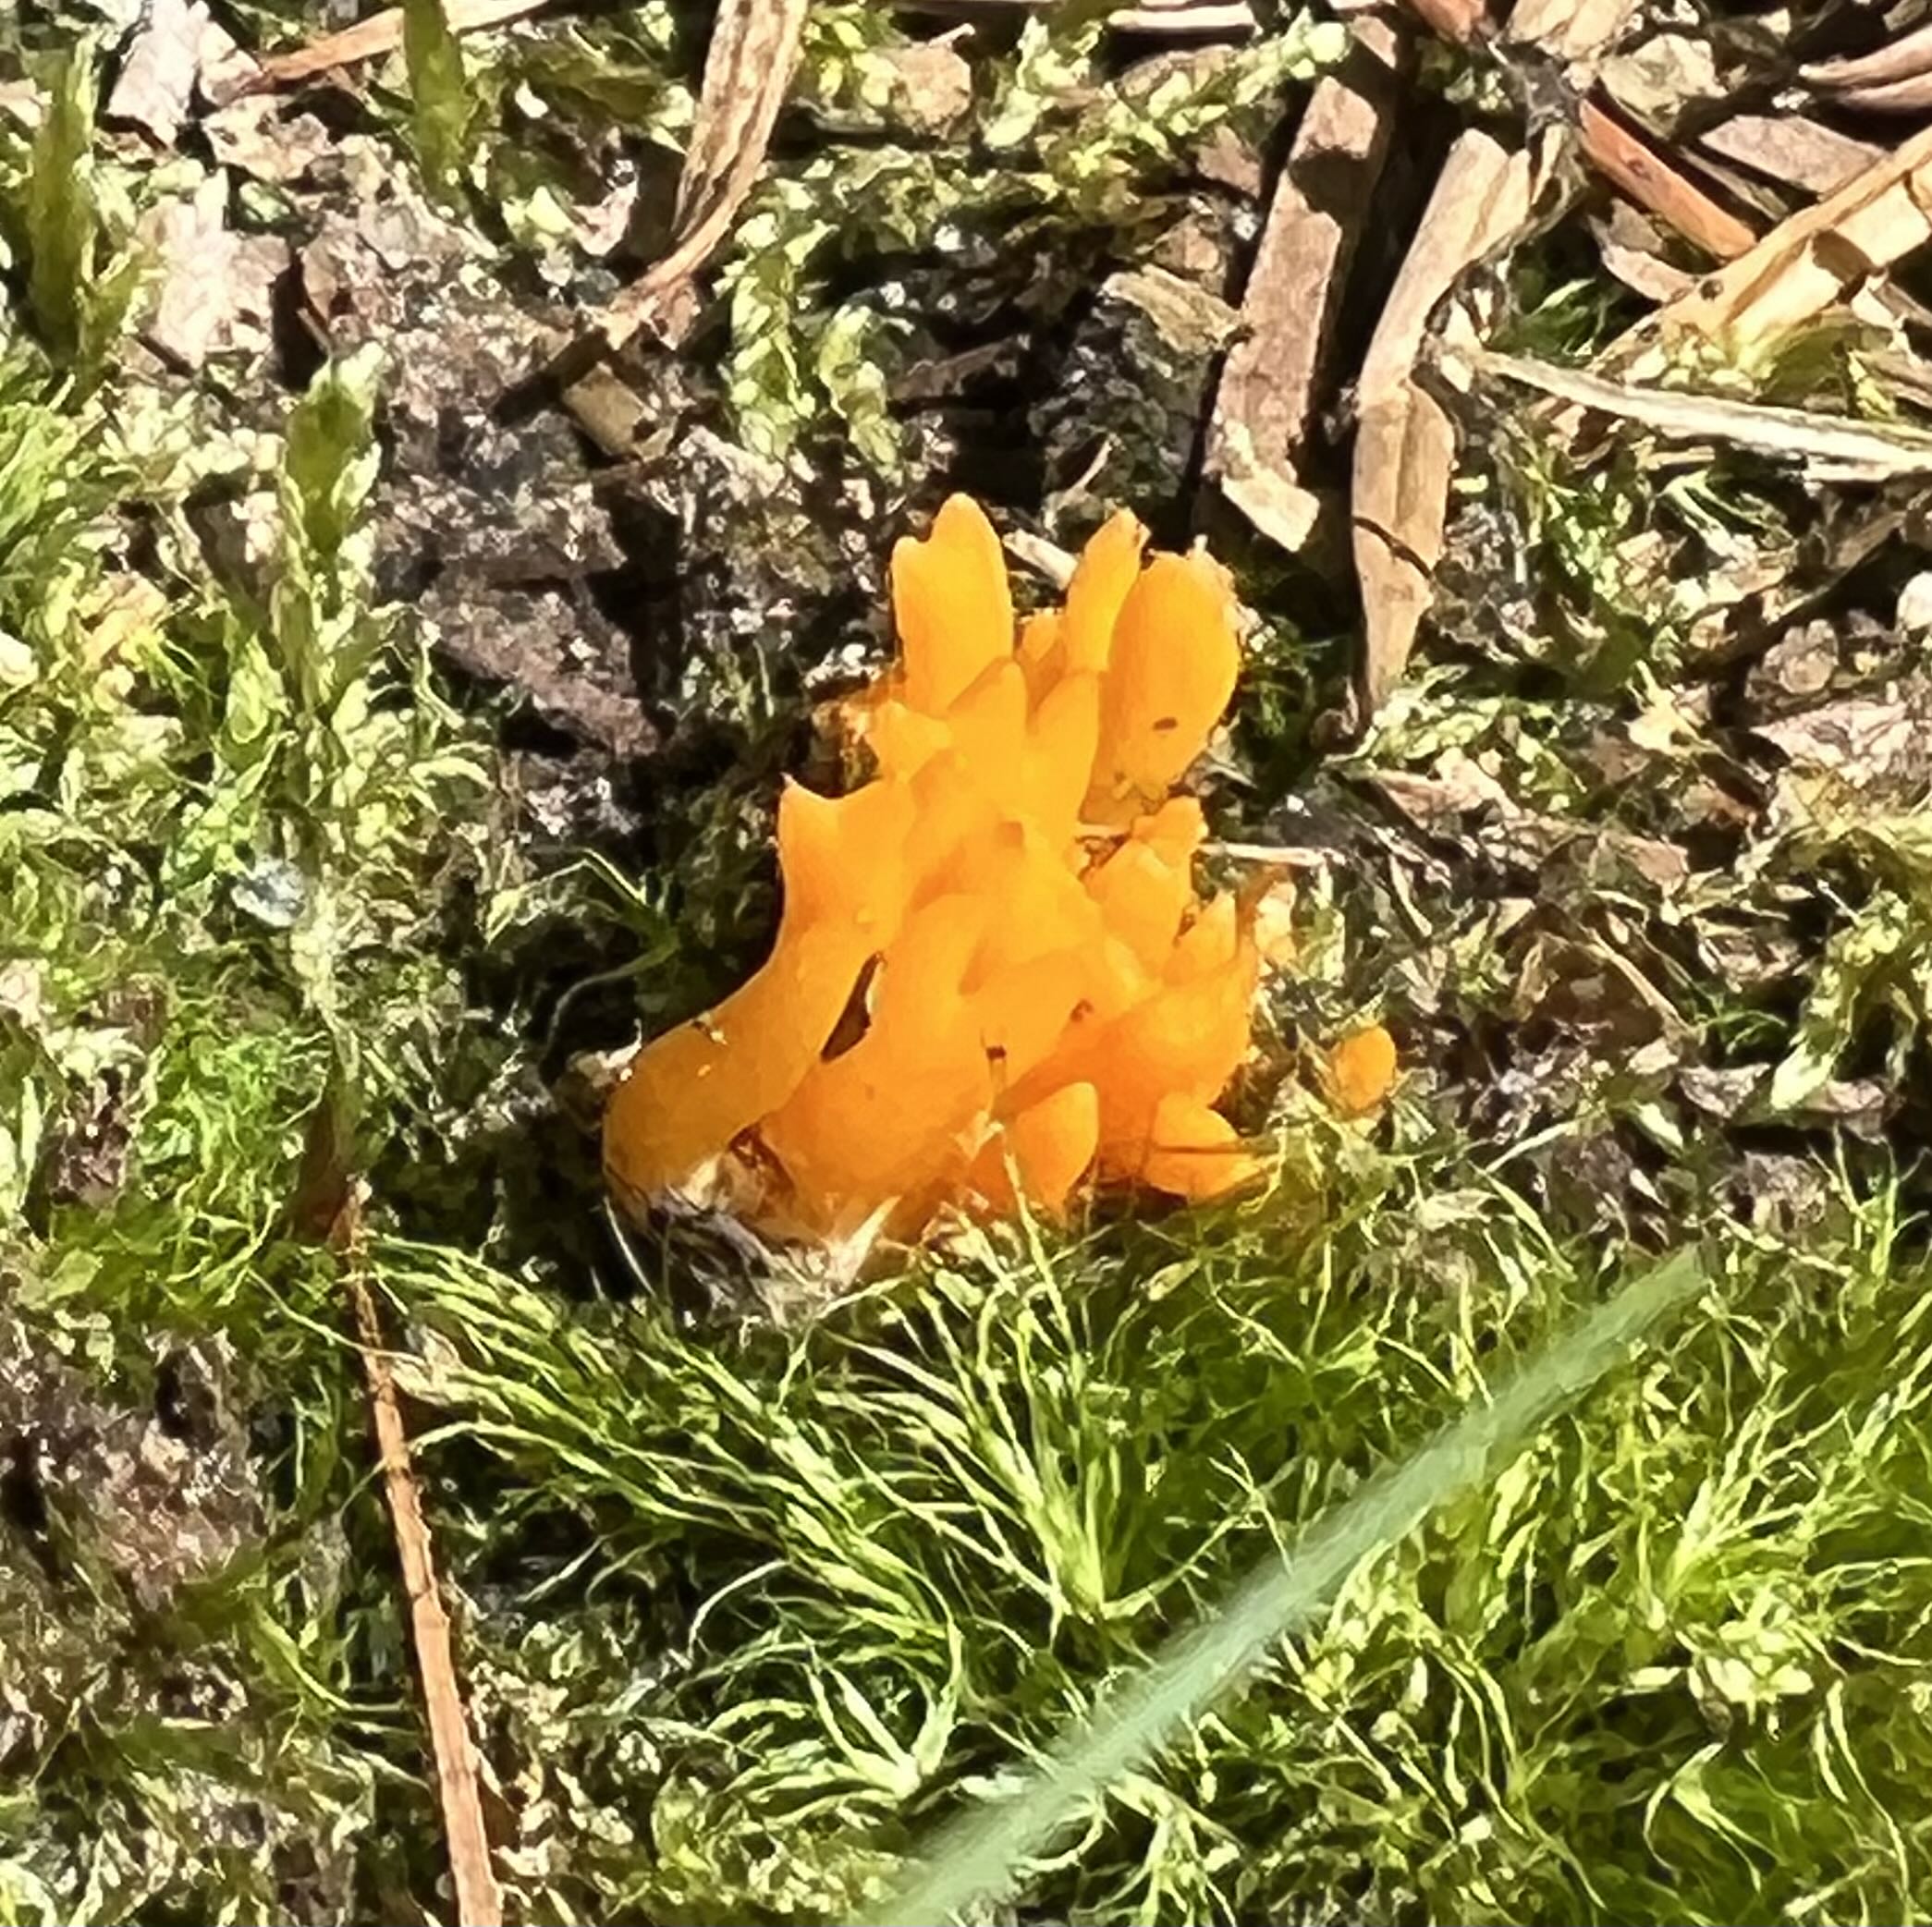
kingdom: Fungi
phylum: Basidiomycota
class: Dacrymycetes
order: Dacrymycetales
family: Dacrymycetaceae
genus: Calocera
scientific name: Calocera viscosa
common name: almindelig guldgaffel
